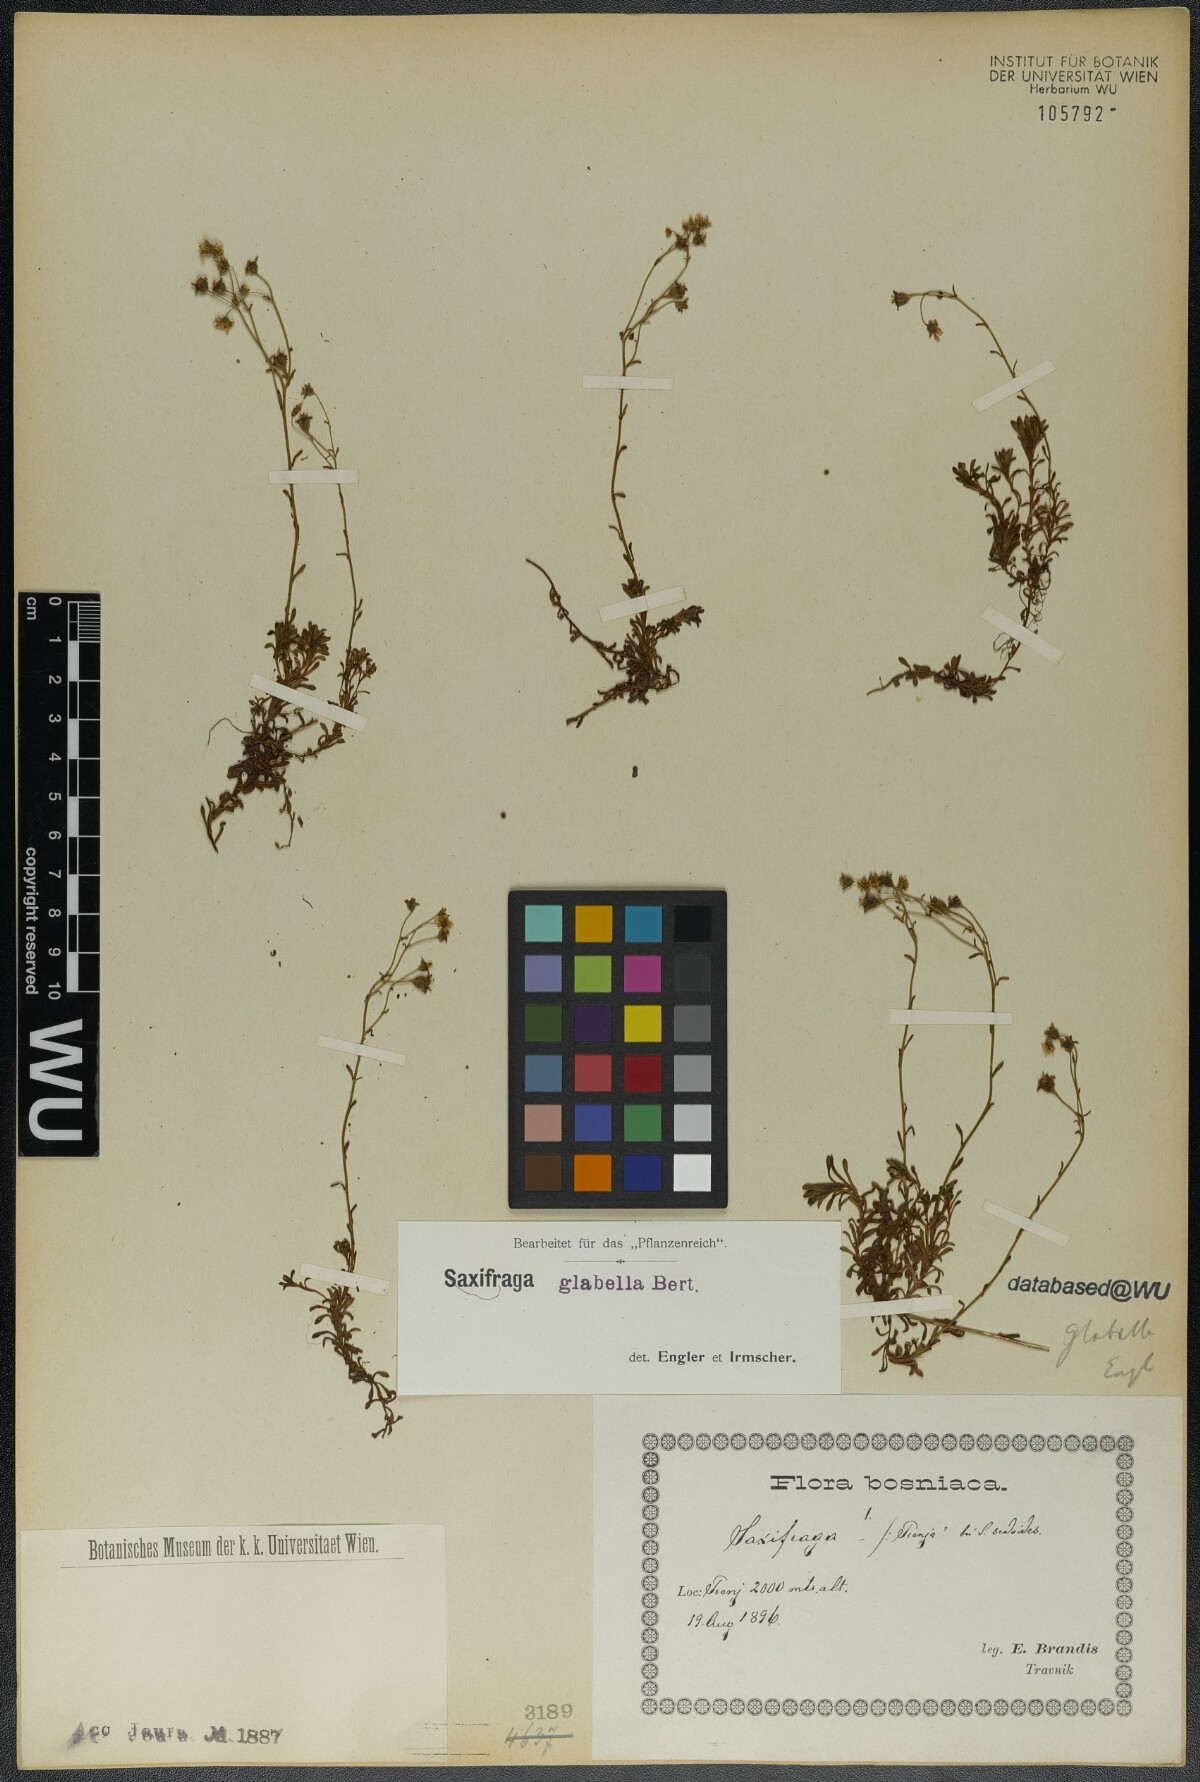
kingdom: Plantae
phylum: Tracheophyta
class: Magnoliopsida
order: Saxifragales
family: Saxifragaceae
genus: Saxifraga
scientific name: Saxifraga glabella
